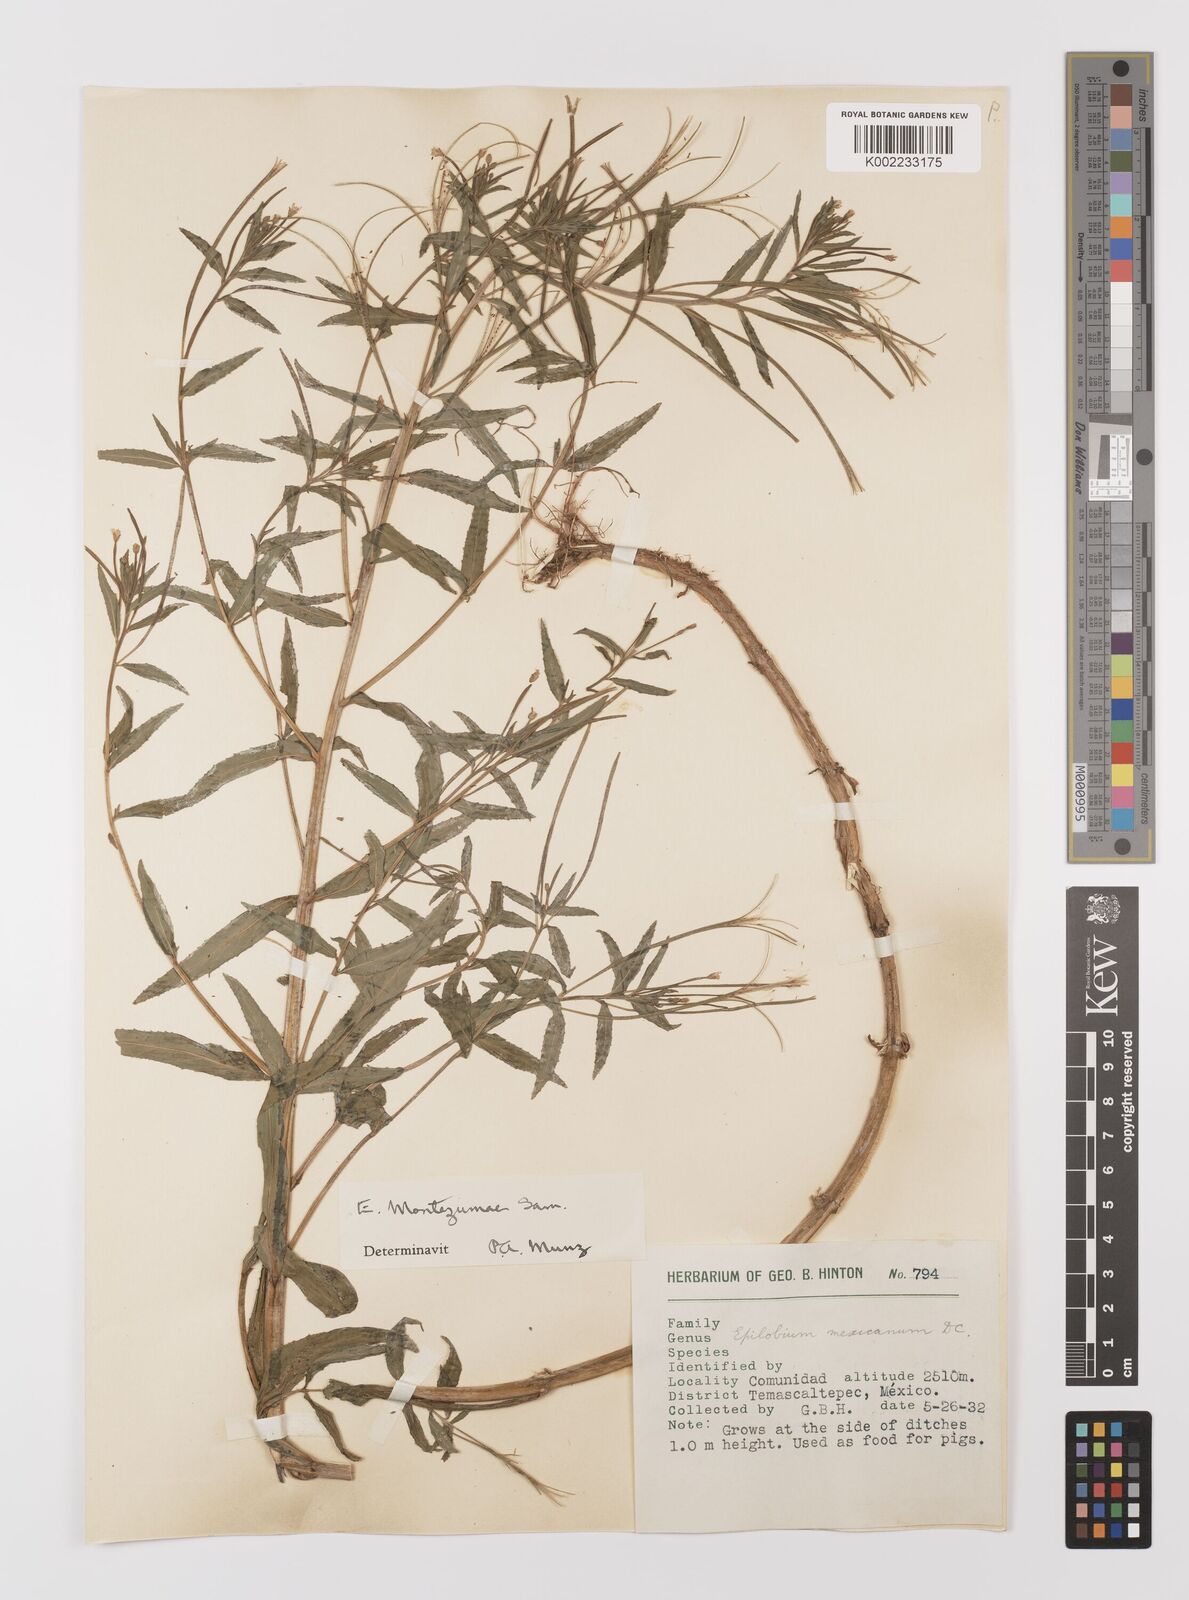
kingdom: Plantae
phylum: Tracheophyta
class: Magnoliopsida
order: Myrtales
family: Onagraceae
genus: Epilobium
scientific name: Epilobium
